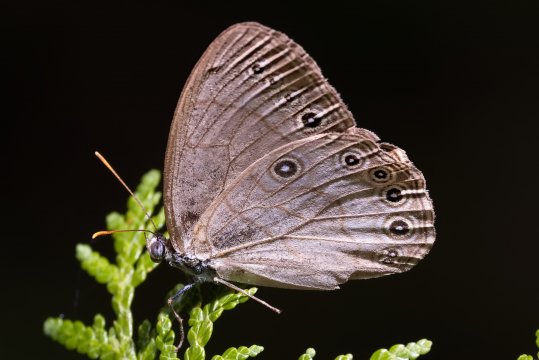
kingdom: Animalia
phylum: Arthropoda
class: Insecta
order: Lepidoptera
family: Nymphalidae
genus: Lethe
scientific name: Lethe eurydice
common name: Appalachian Eyed Brown
